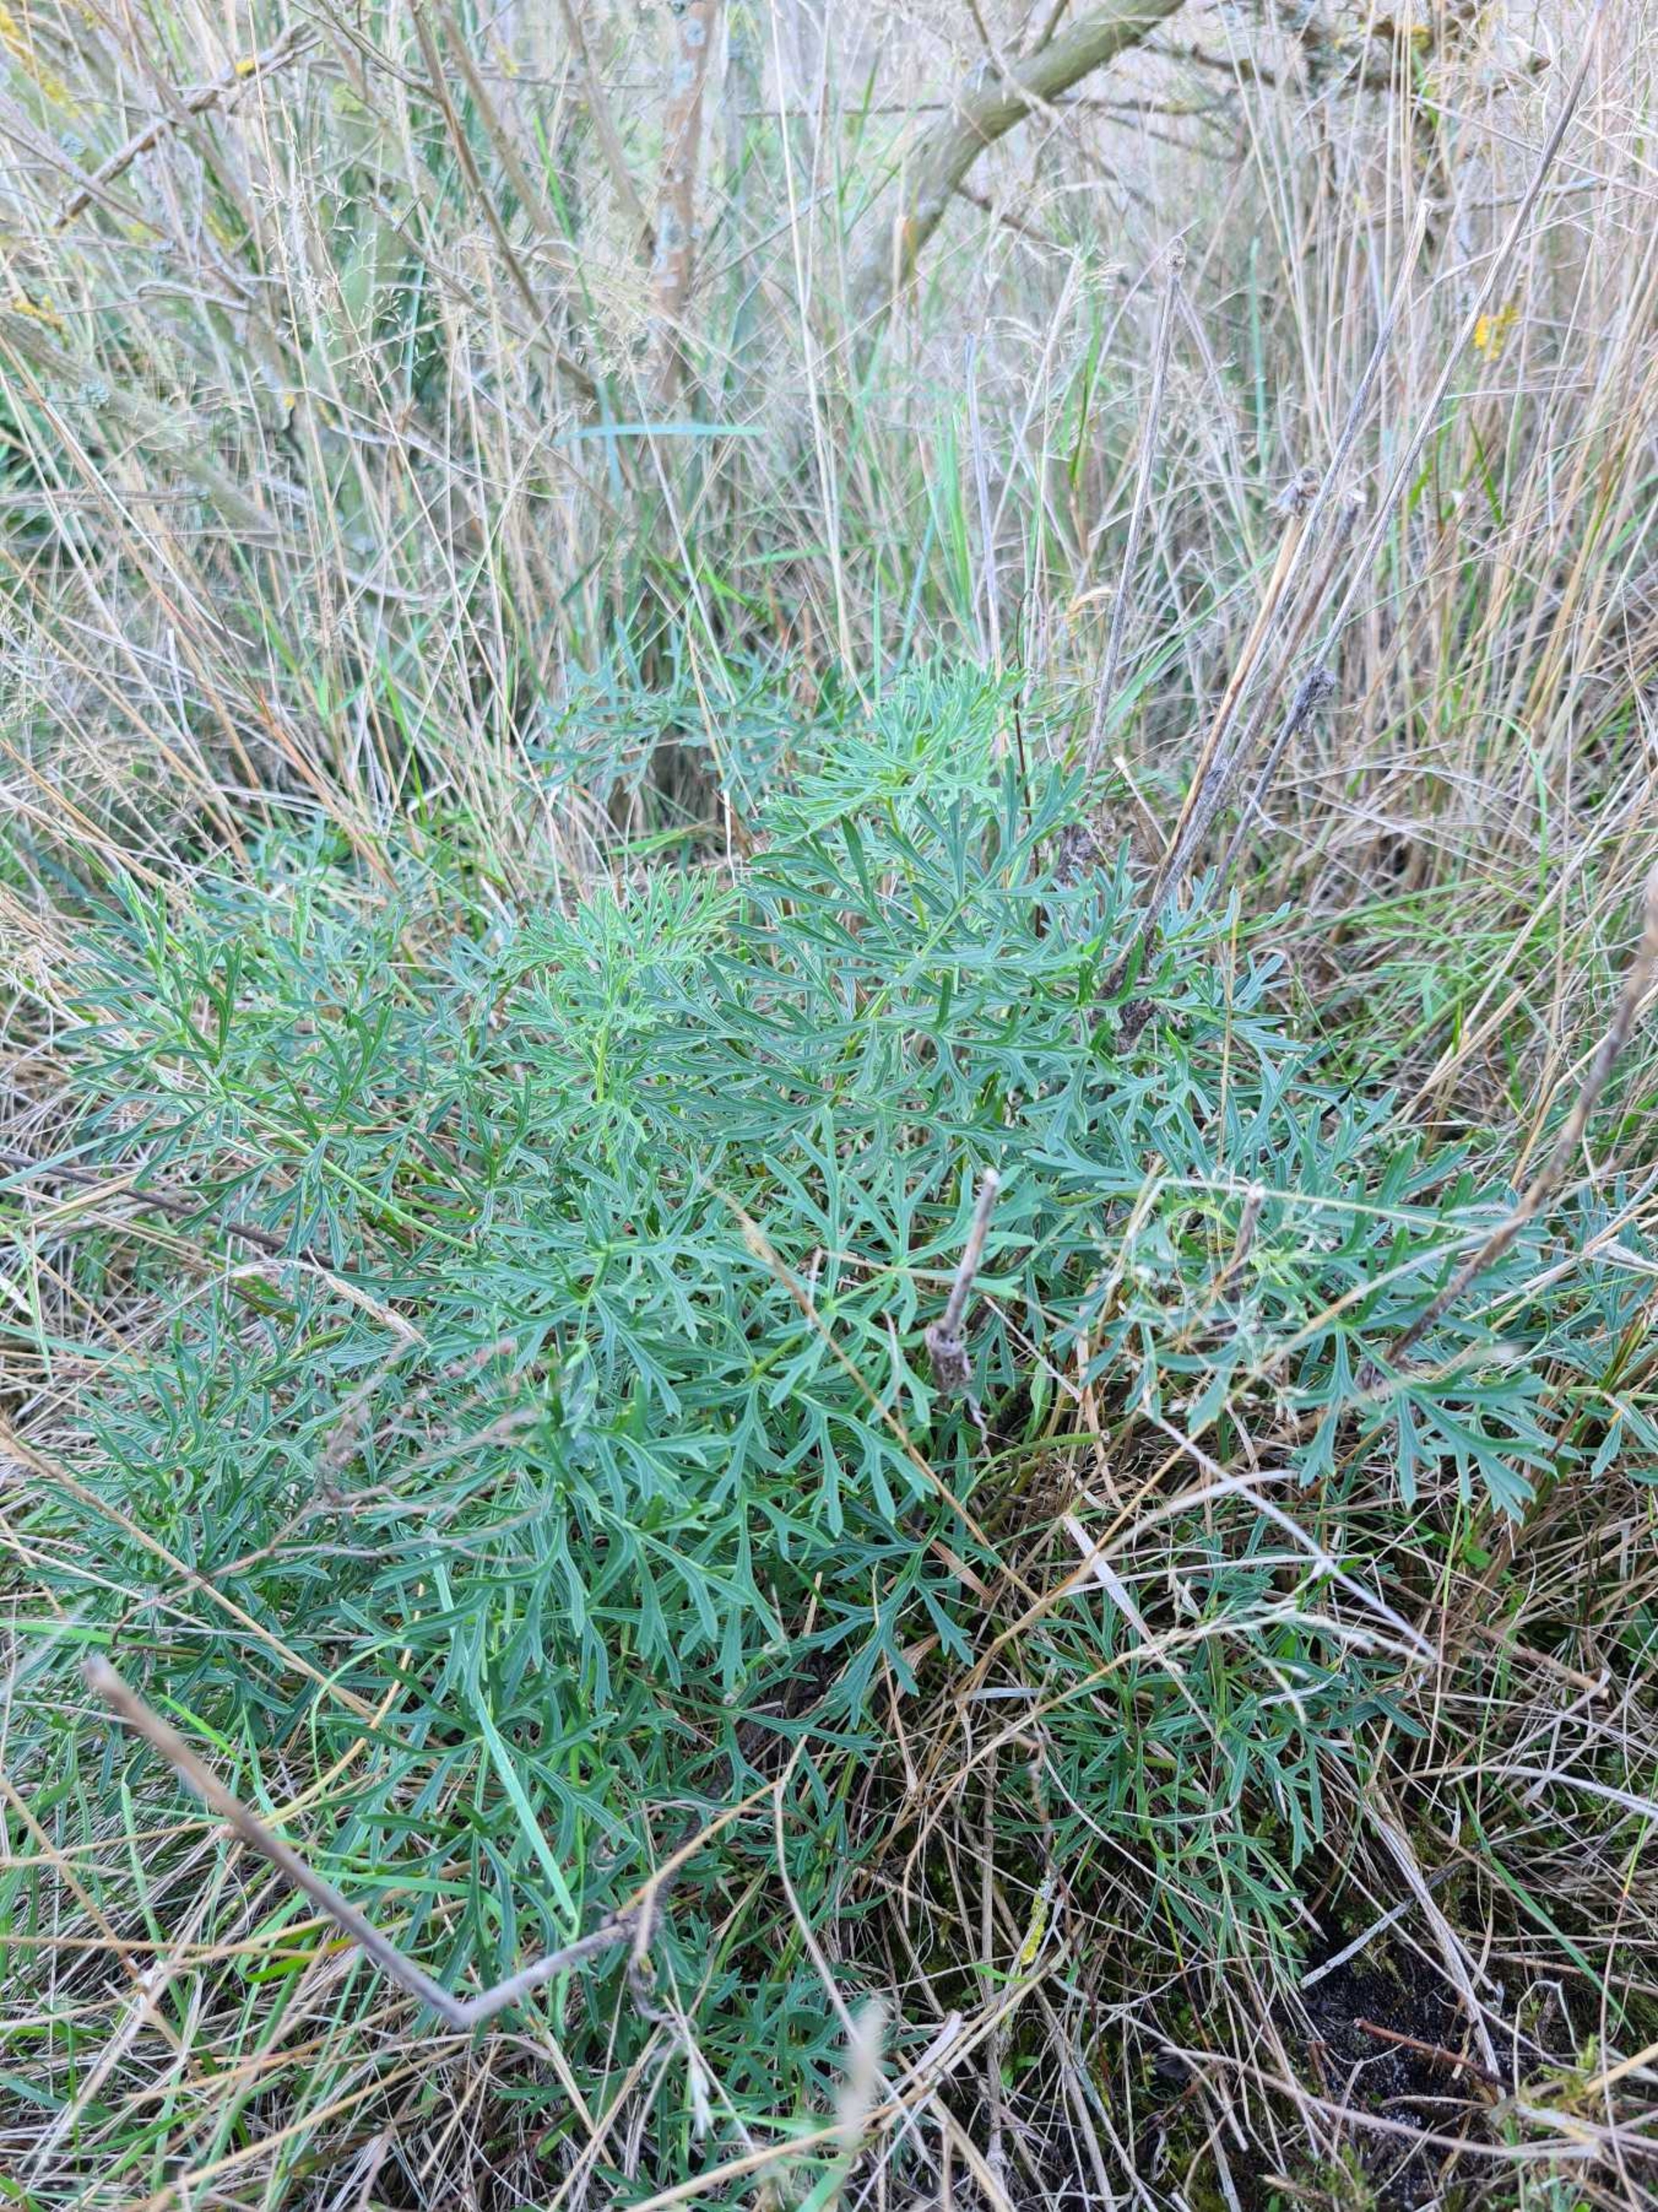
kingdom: Plantae
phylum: Tracheophyta
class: Magnoliopsida
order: Ranunculales
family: Ranunculaceae
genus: Pulsatilla
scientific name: Pulsatilla vulgaris
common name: Opret kobjælde
